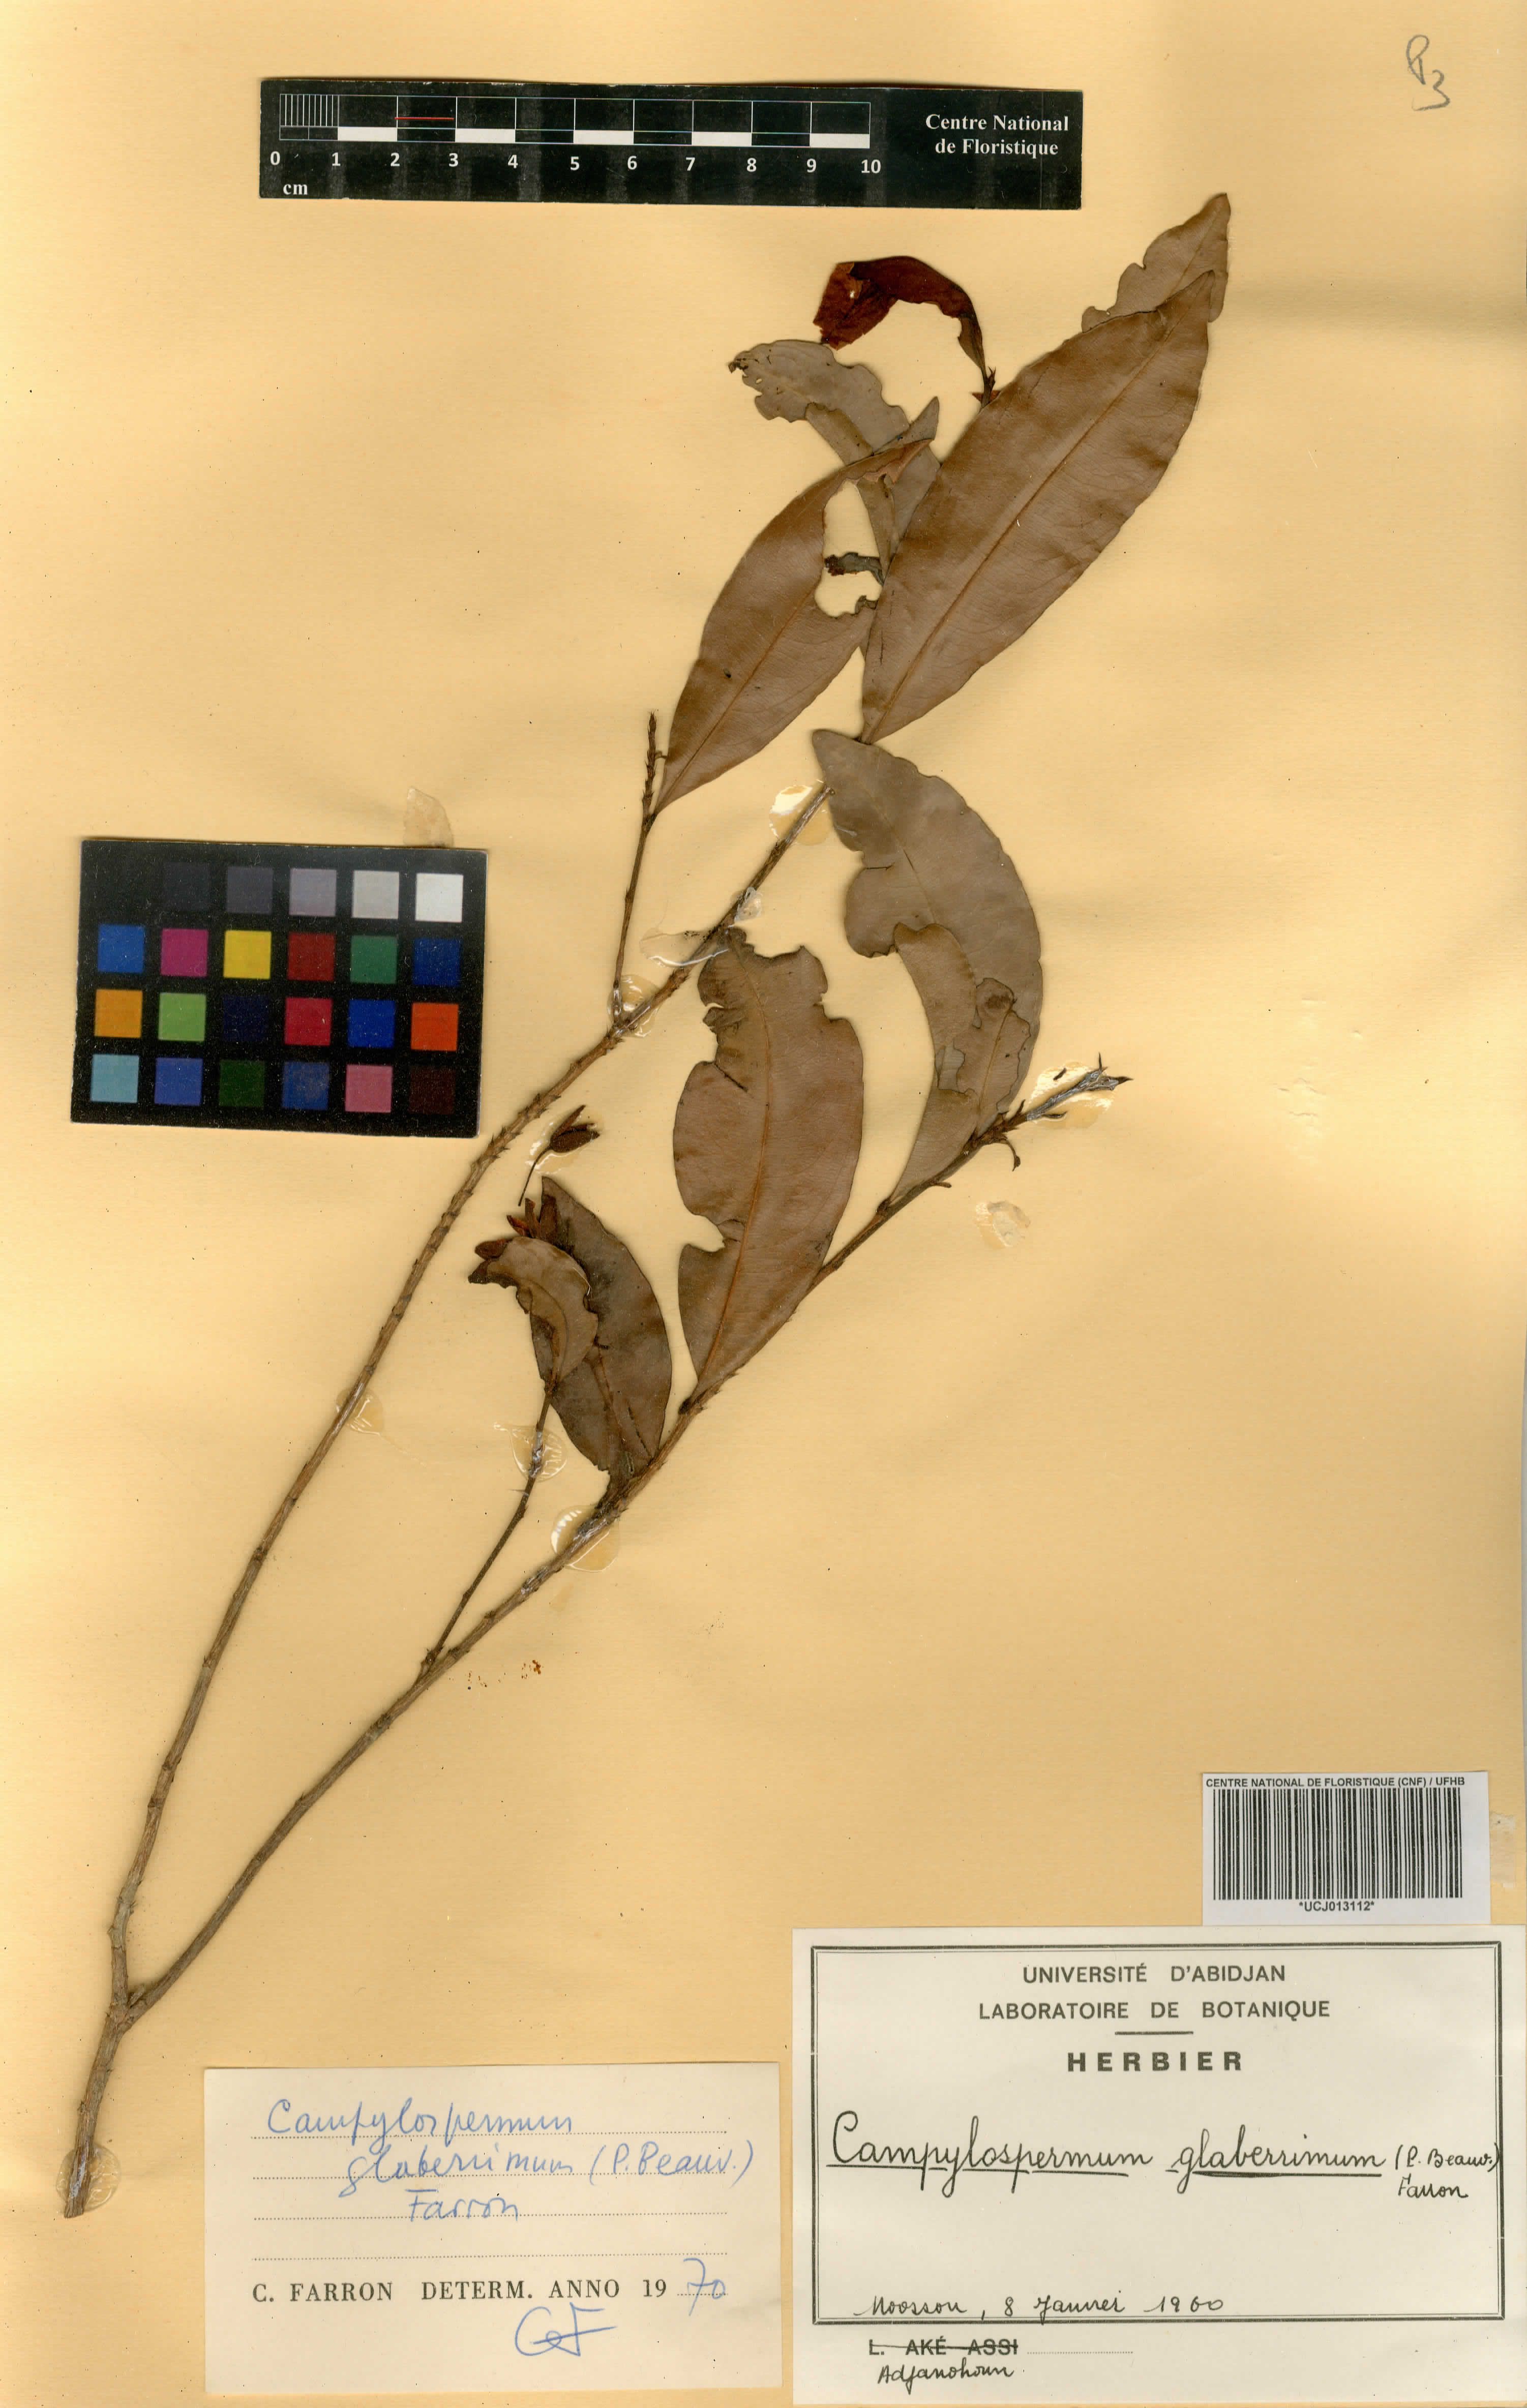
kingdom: Plantae
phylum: Tracheophyta
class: Magnoliopsida
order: Malpighiales
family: Ochnaceae
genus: Campylospermum
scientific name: Campylospermum glaberrimum
